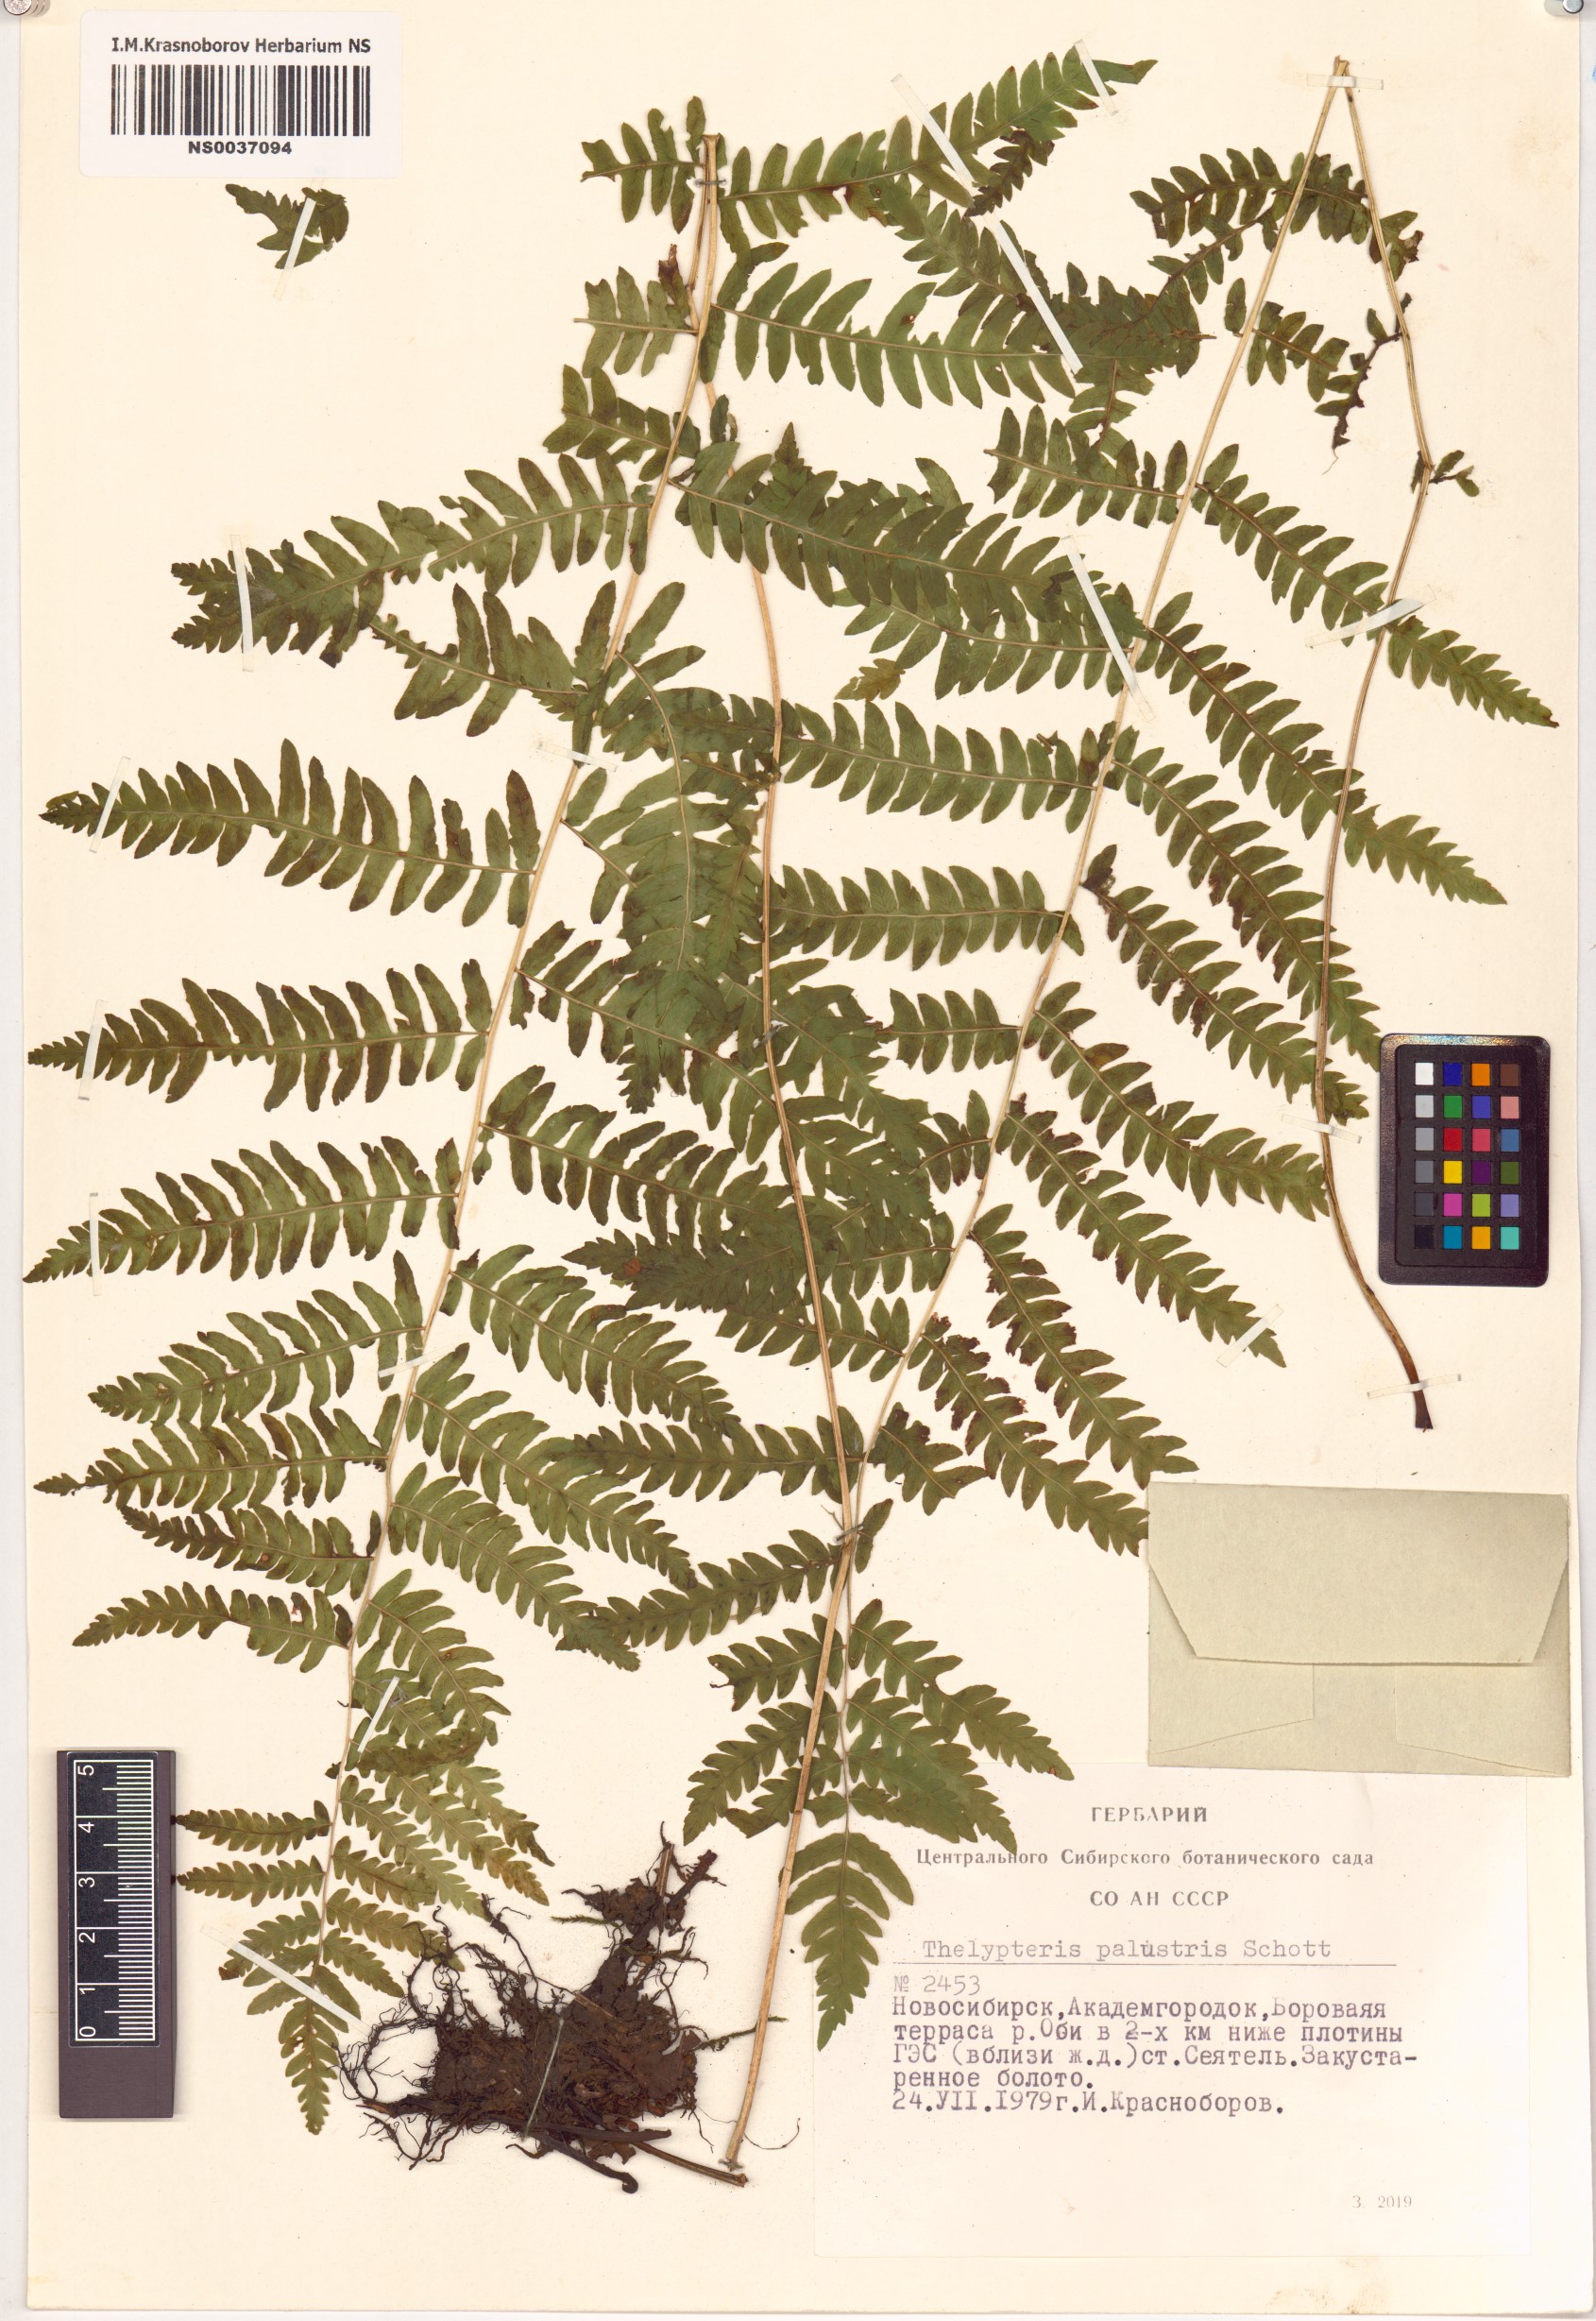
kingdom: Plantae
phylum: Tracheophyta
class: Polypodiopsida
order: Polypodiales
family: Thelypteridaceae
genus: Thelypteris
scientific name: Thelypteris palustris
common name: Marsh fern
